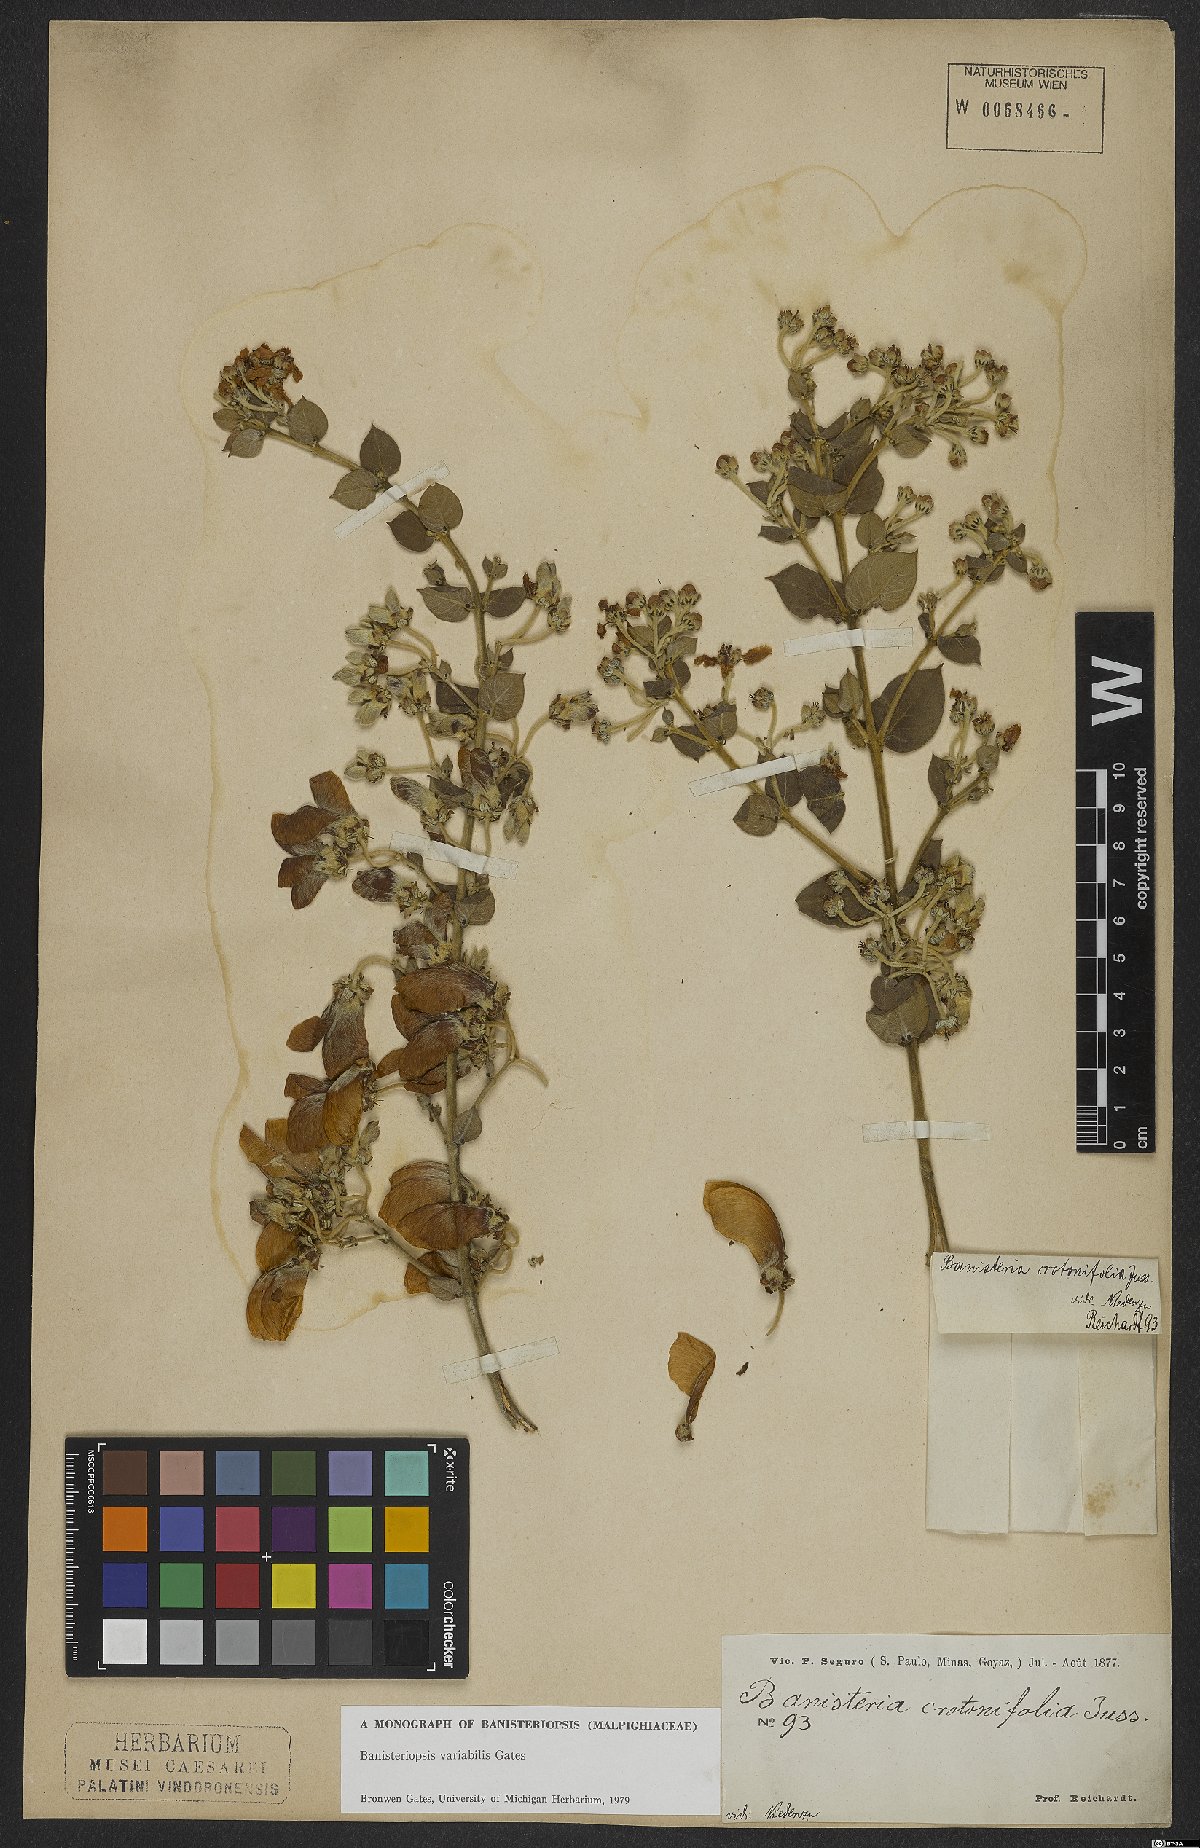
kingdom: Plantae
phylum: Tracheophyta
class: Magnoliopsida
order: Malpighiales
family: Malpighiaceae
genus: Banisteriopsis
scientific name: Banisteriopsis variabilis
